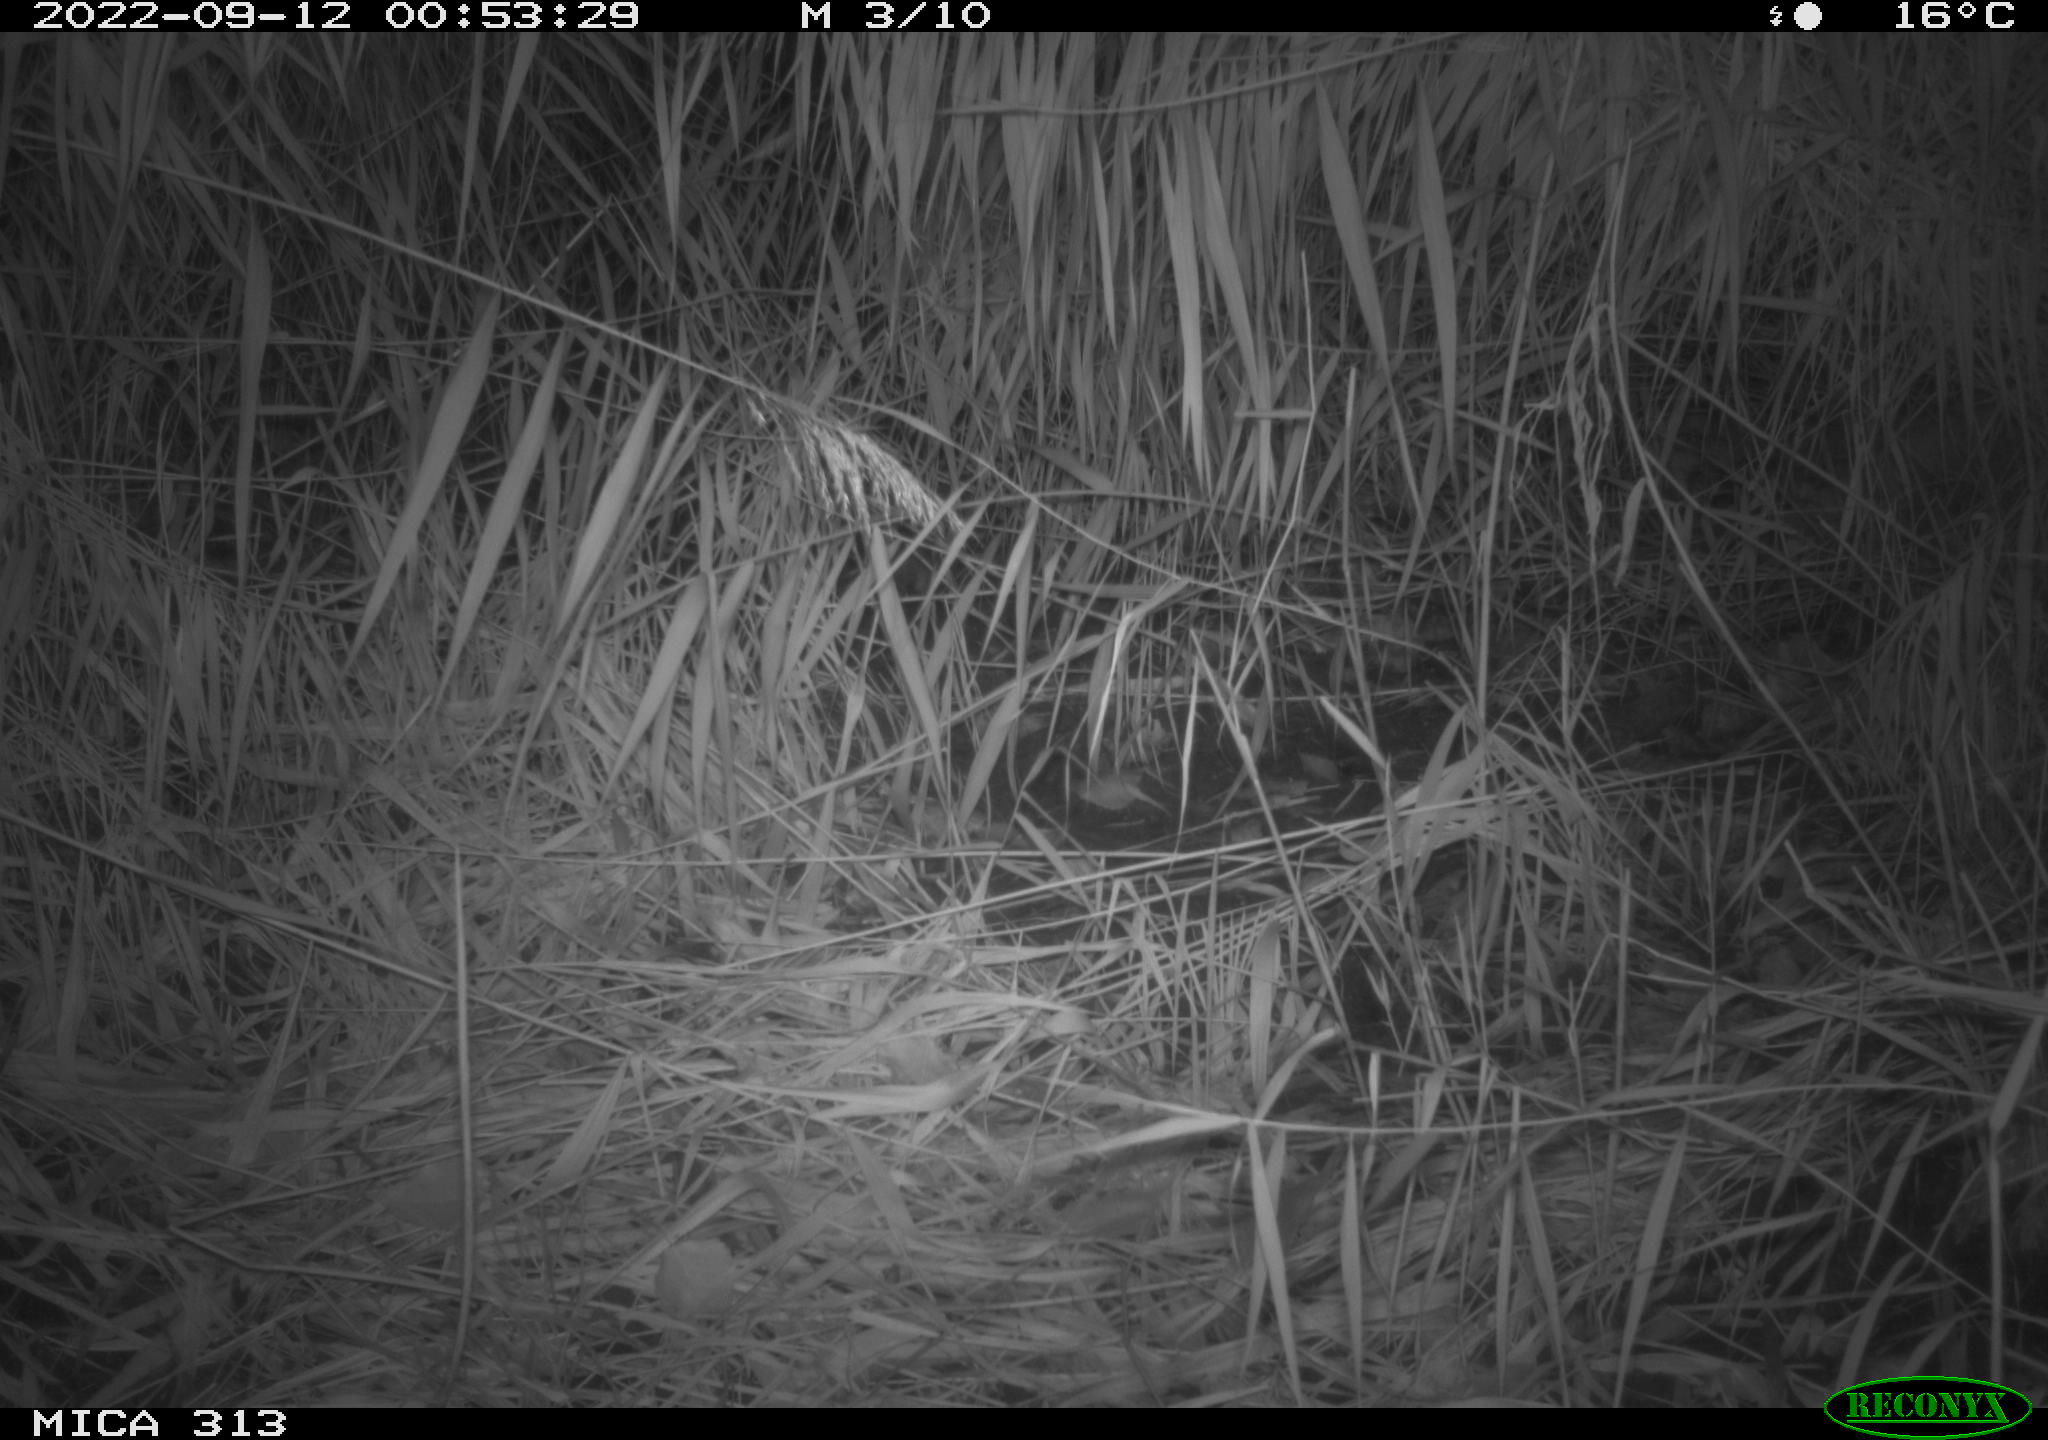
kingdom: Animalia
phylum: Chordata
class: Mammalia
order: Rodentia
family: Muridae
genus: Rattus
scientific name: Rattus norvegicus
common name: Brown rat
